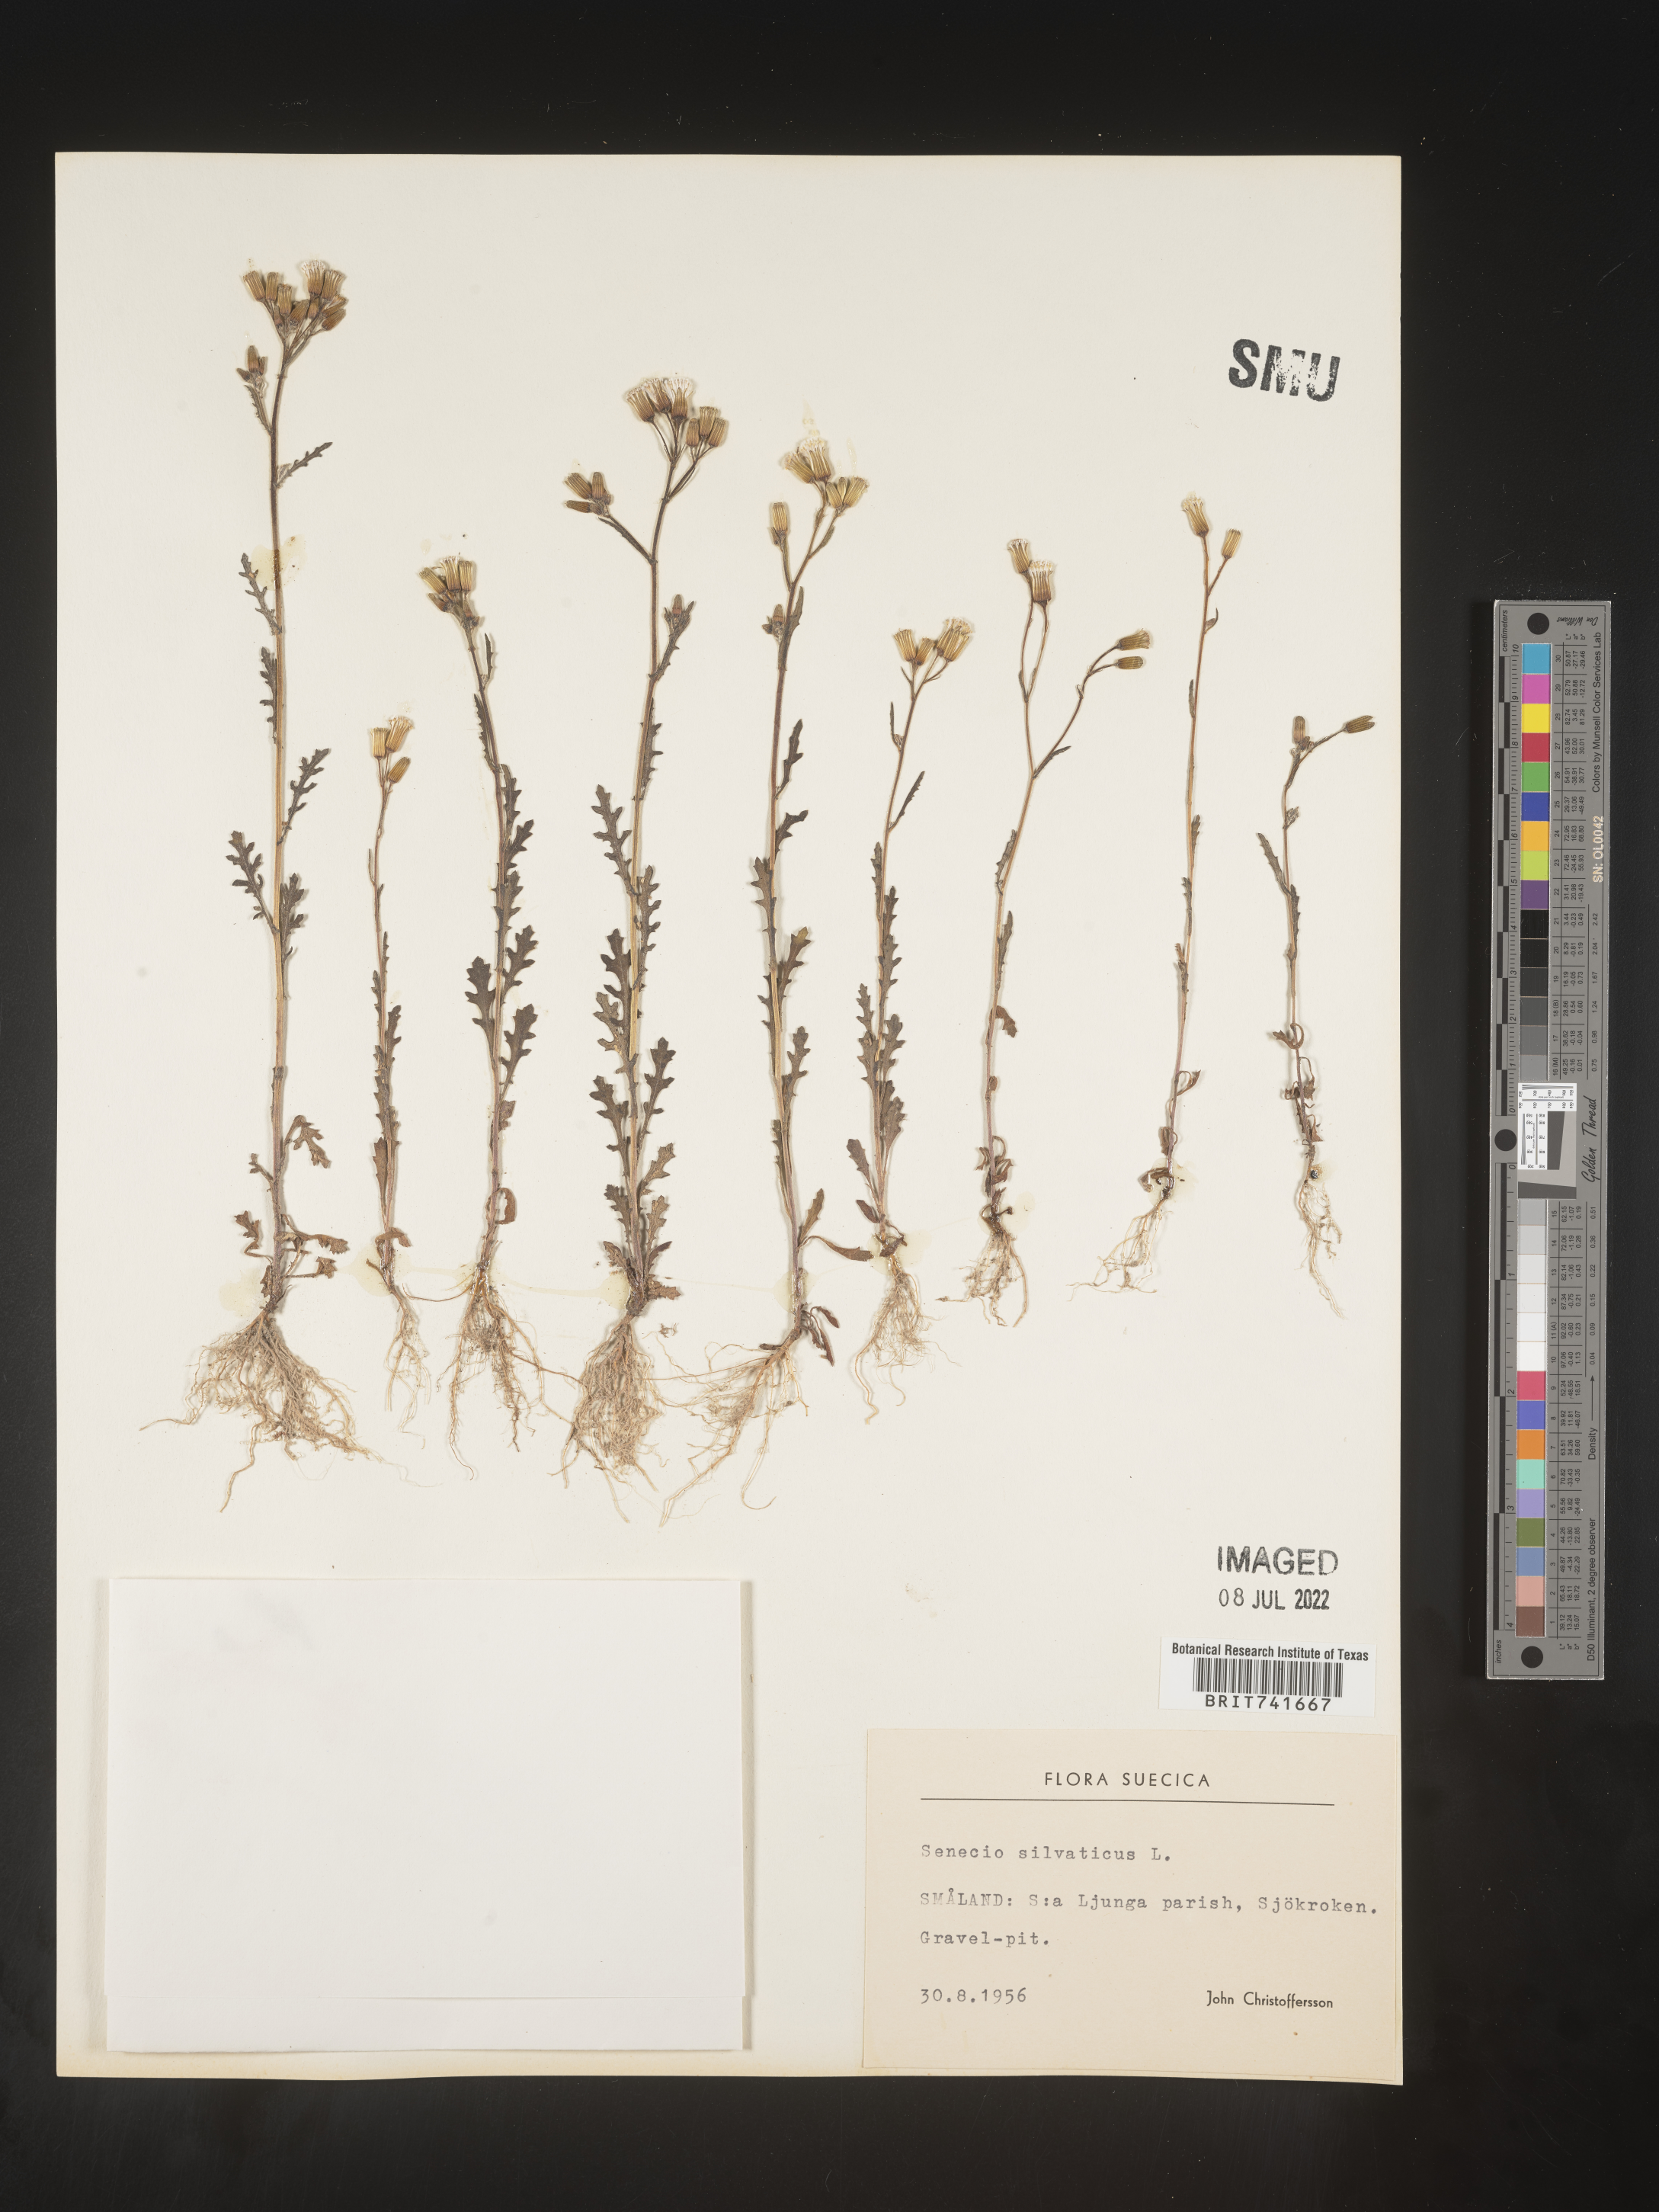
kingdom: Plantae
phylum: Tracheophyta
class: Magnoliopsida
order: Asterales
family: Asteraceae
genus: Senecio
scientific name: Senecio
